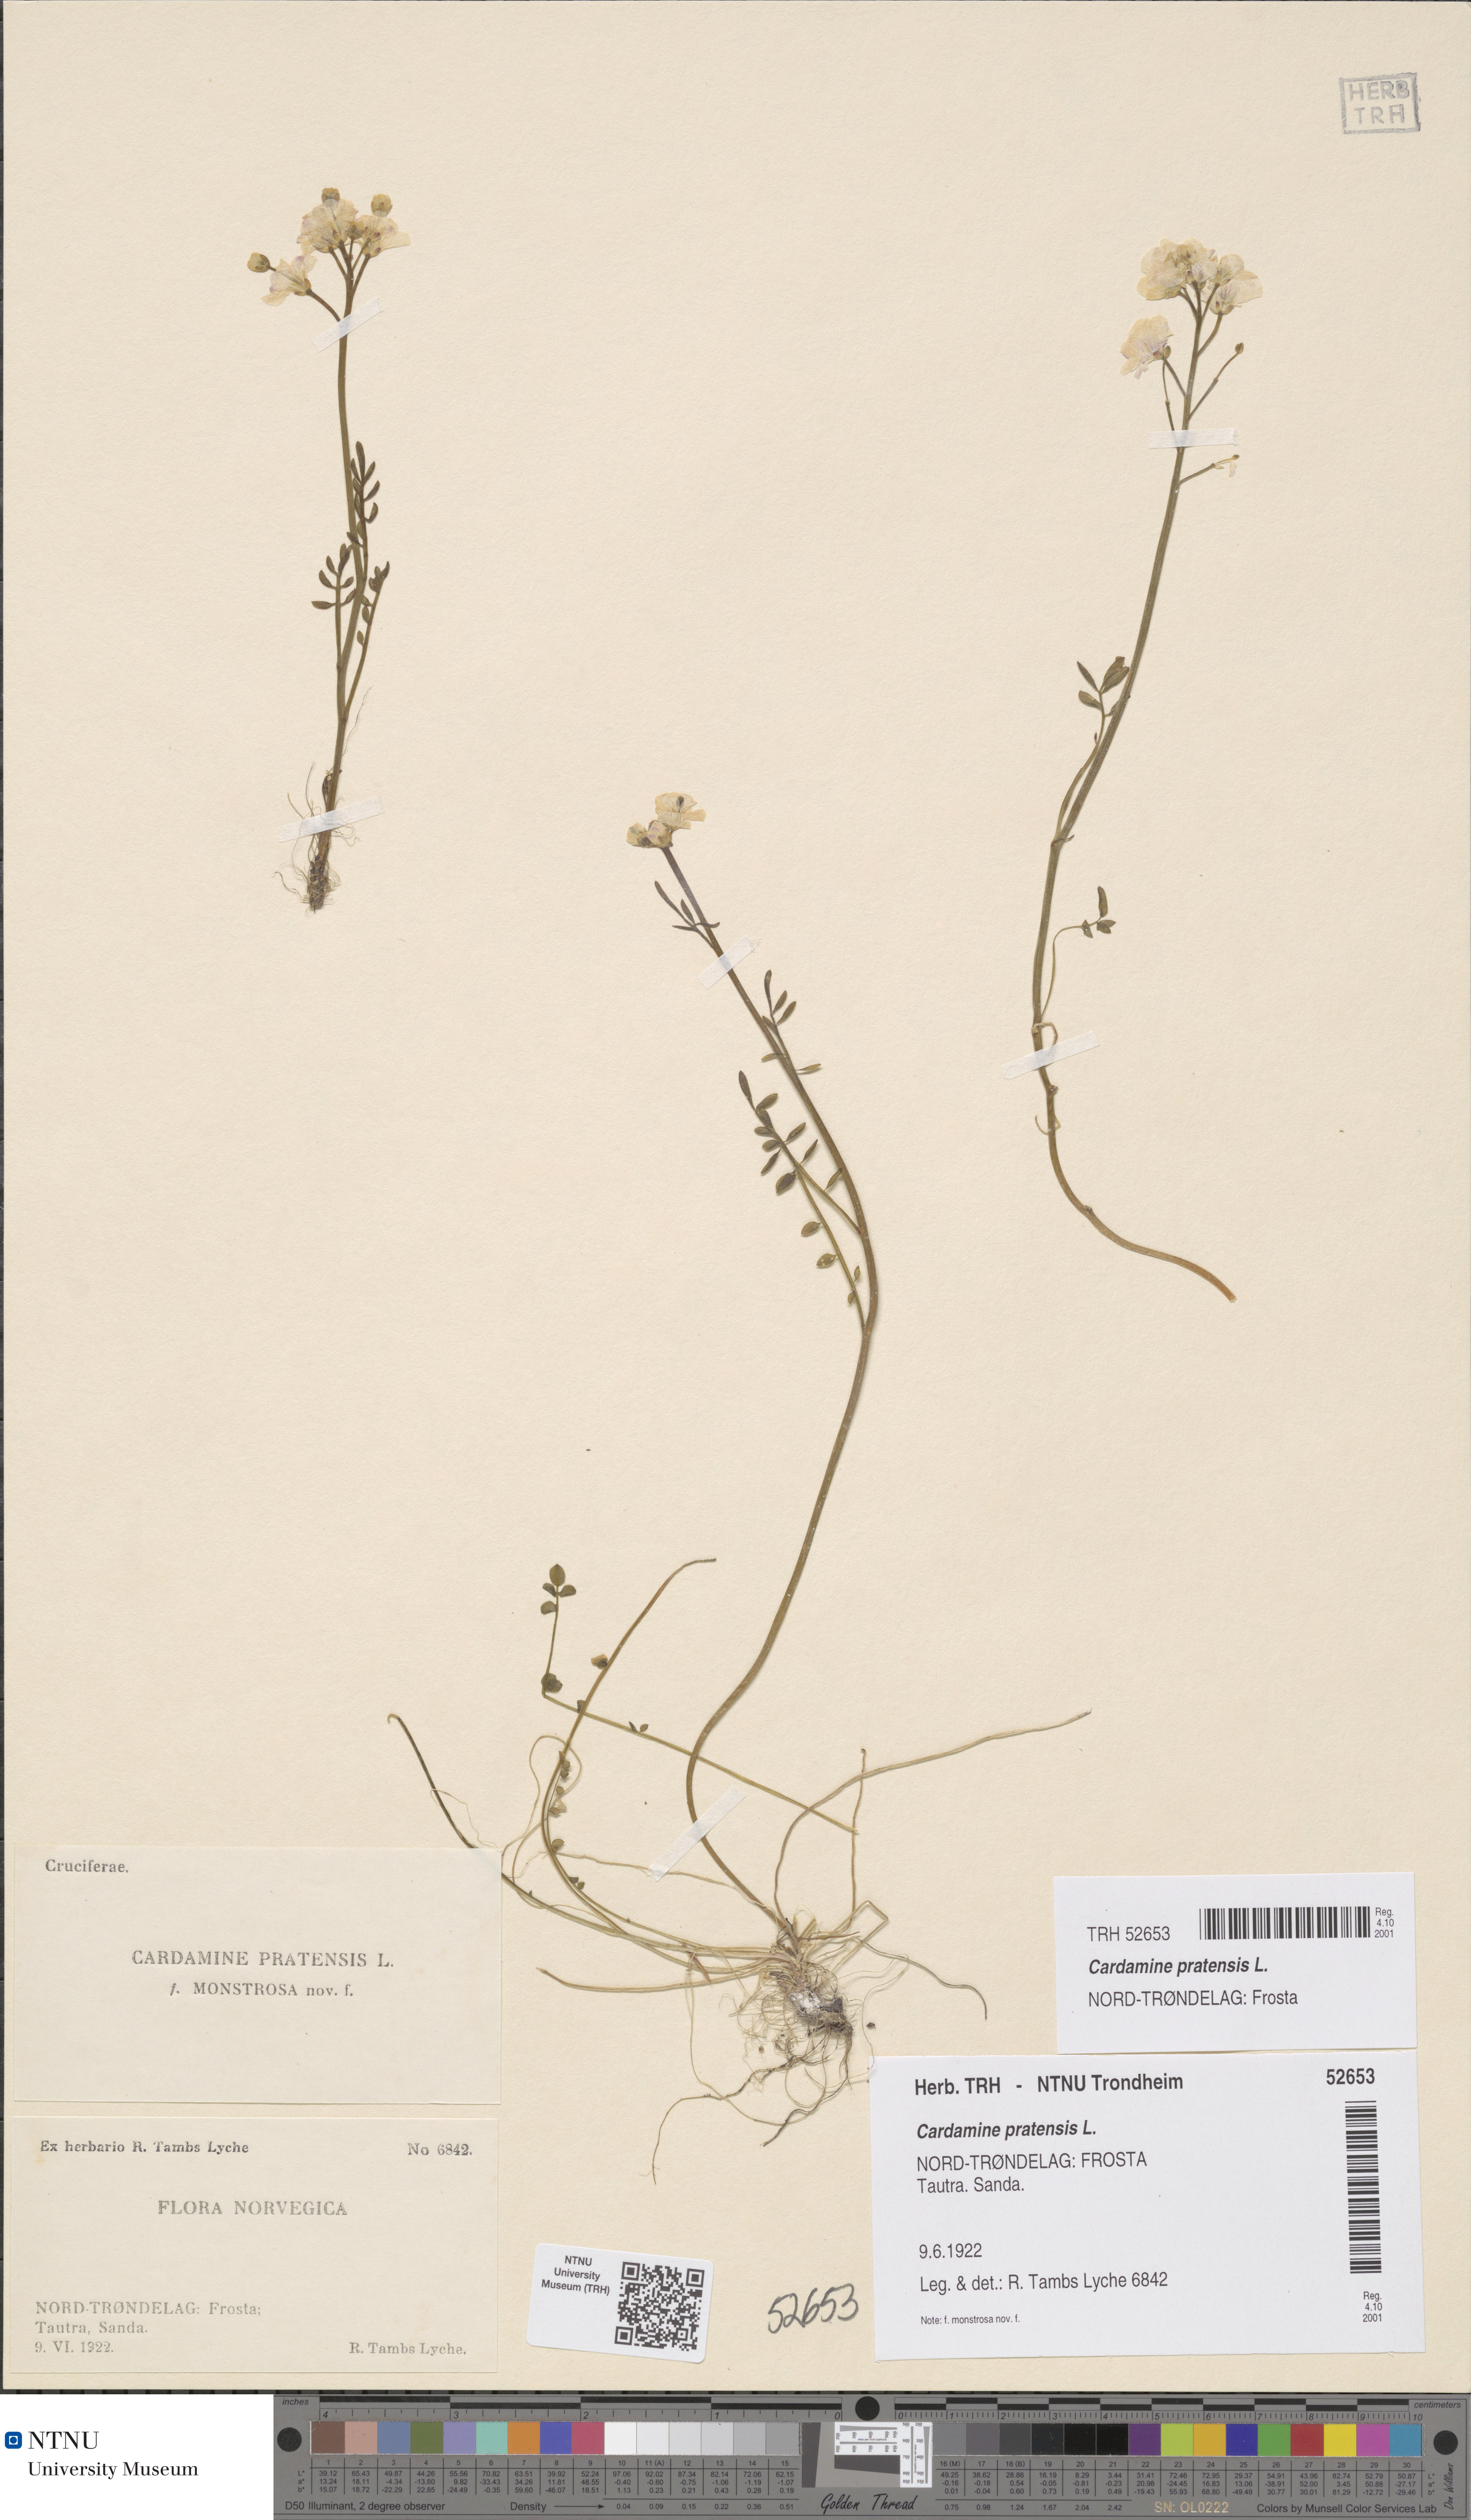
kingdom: Plantae
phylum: Tracheophyta
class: Magnoliopsida
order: Brassicales
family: Brassicaceae
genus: Cardamine
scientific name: Cardamine dentata
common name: Toothed bittercress
